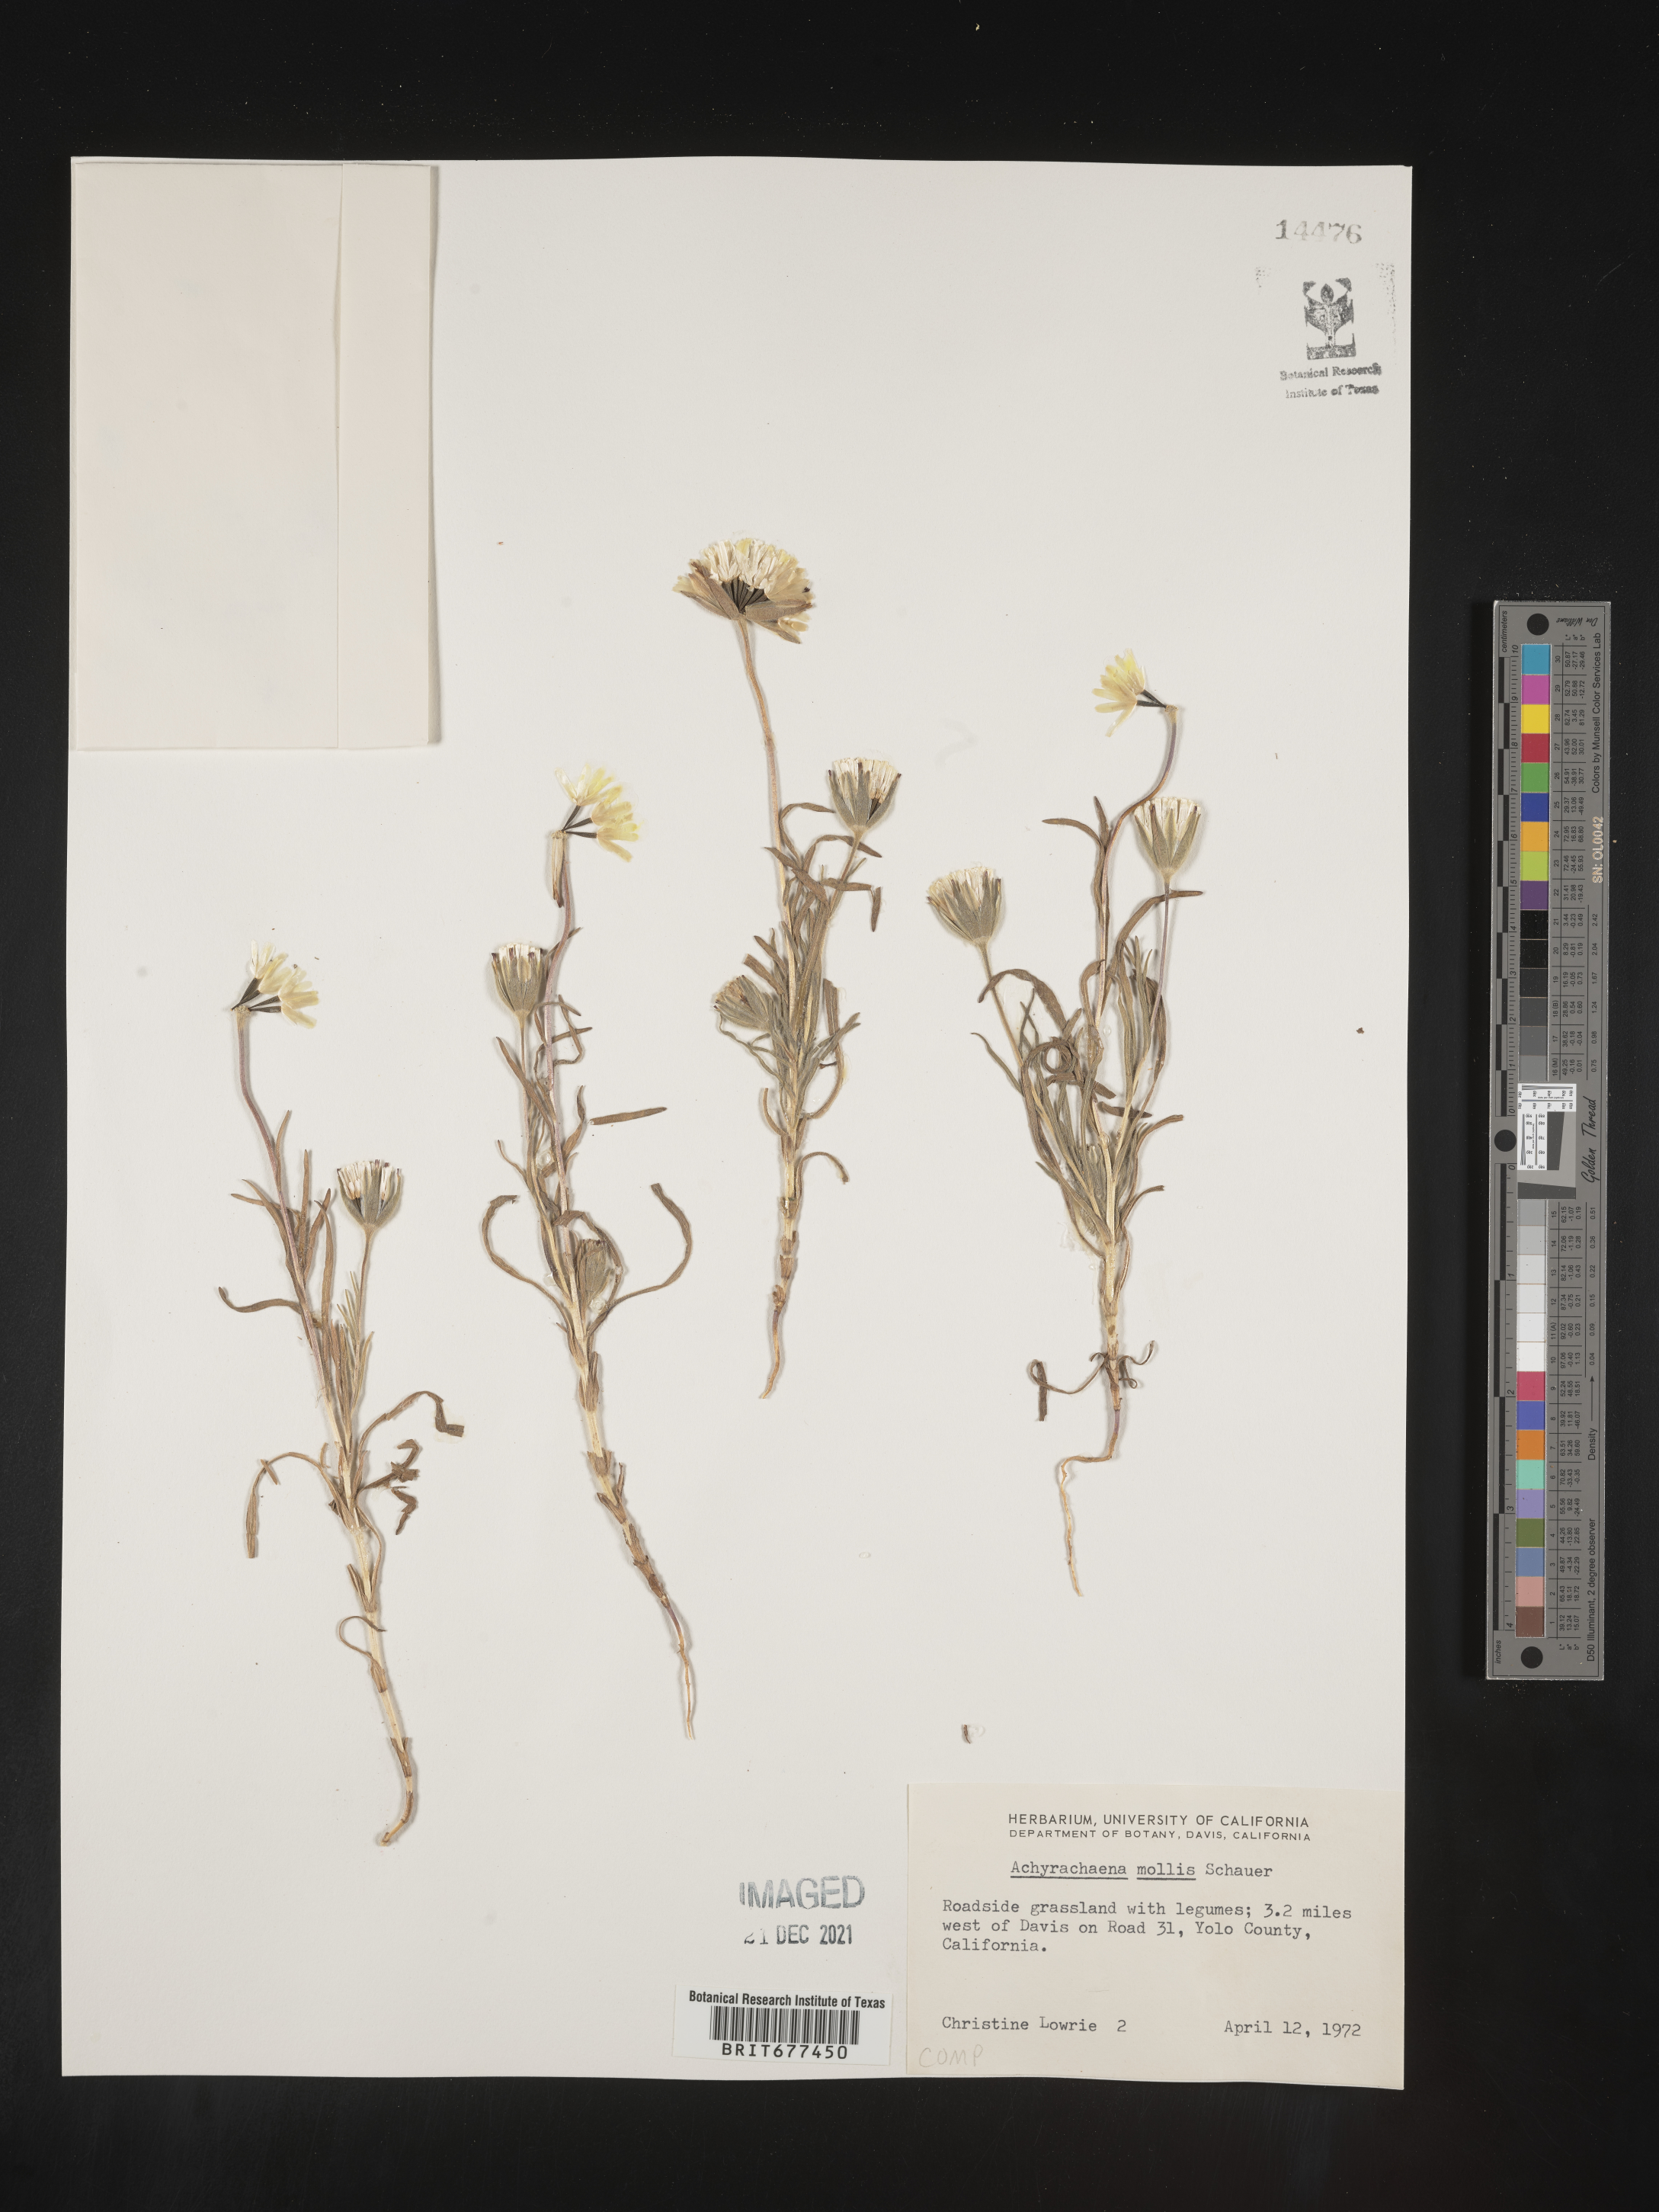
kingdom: Plantae
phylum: Tracheophyta
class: Magnoliopsida
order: Asterales
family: Asteraceae
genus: Achyrachaena
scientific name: Achyrachaena mollis
